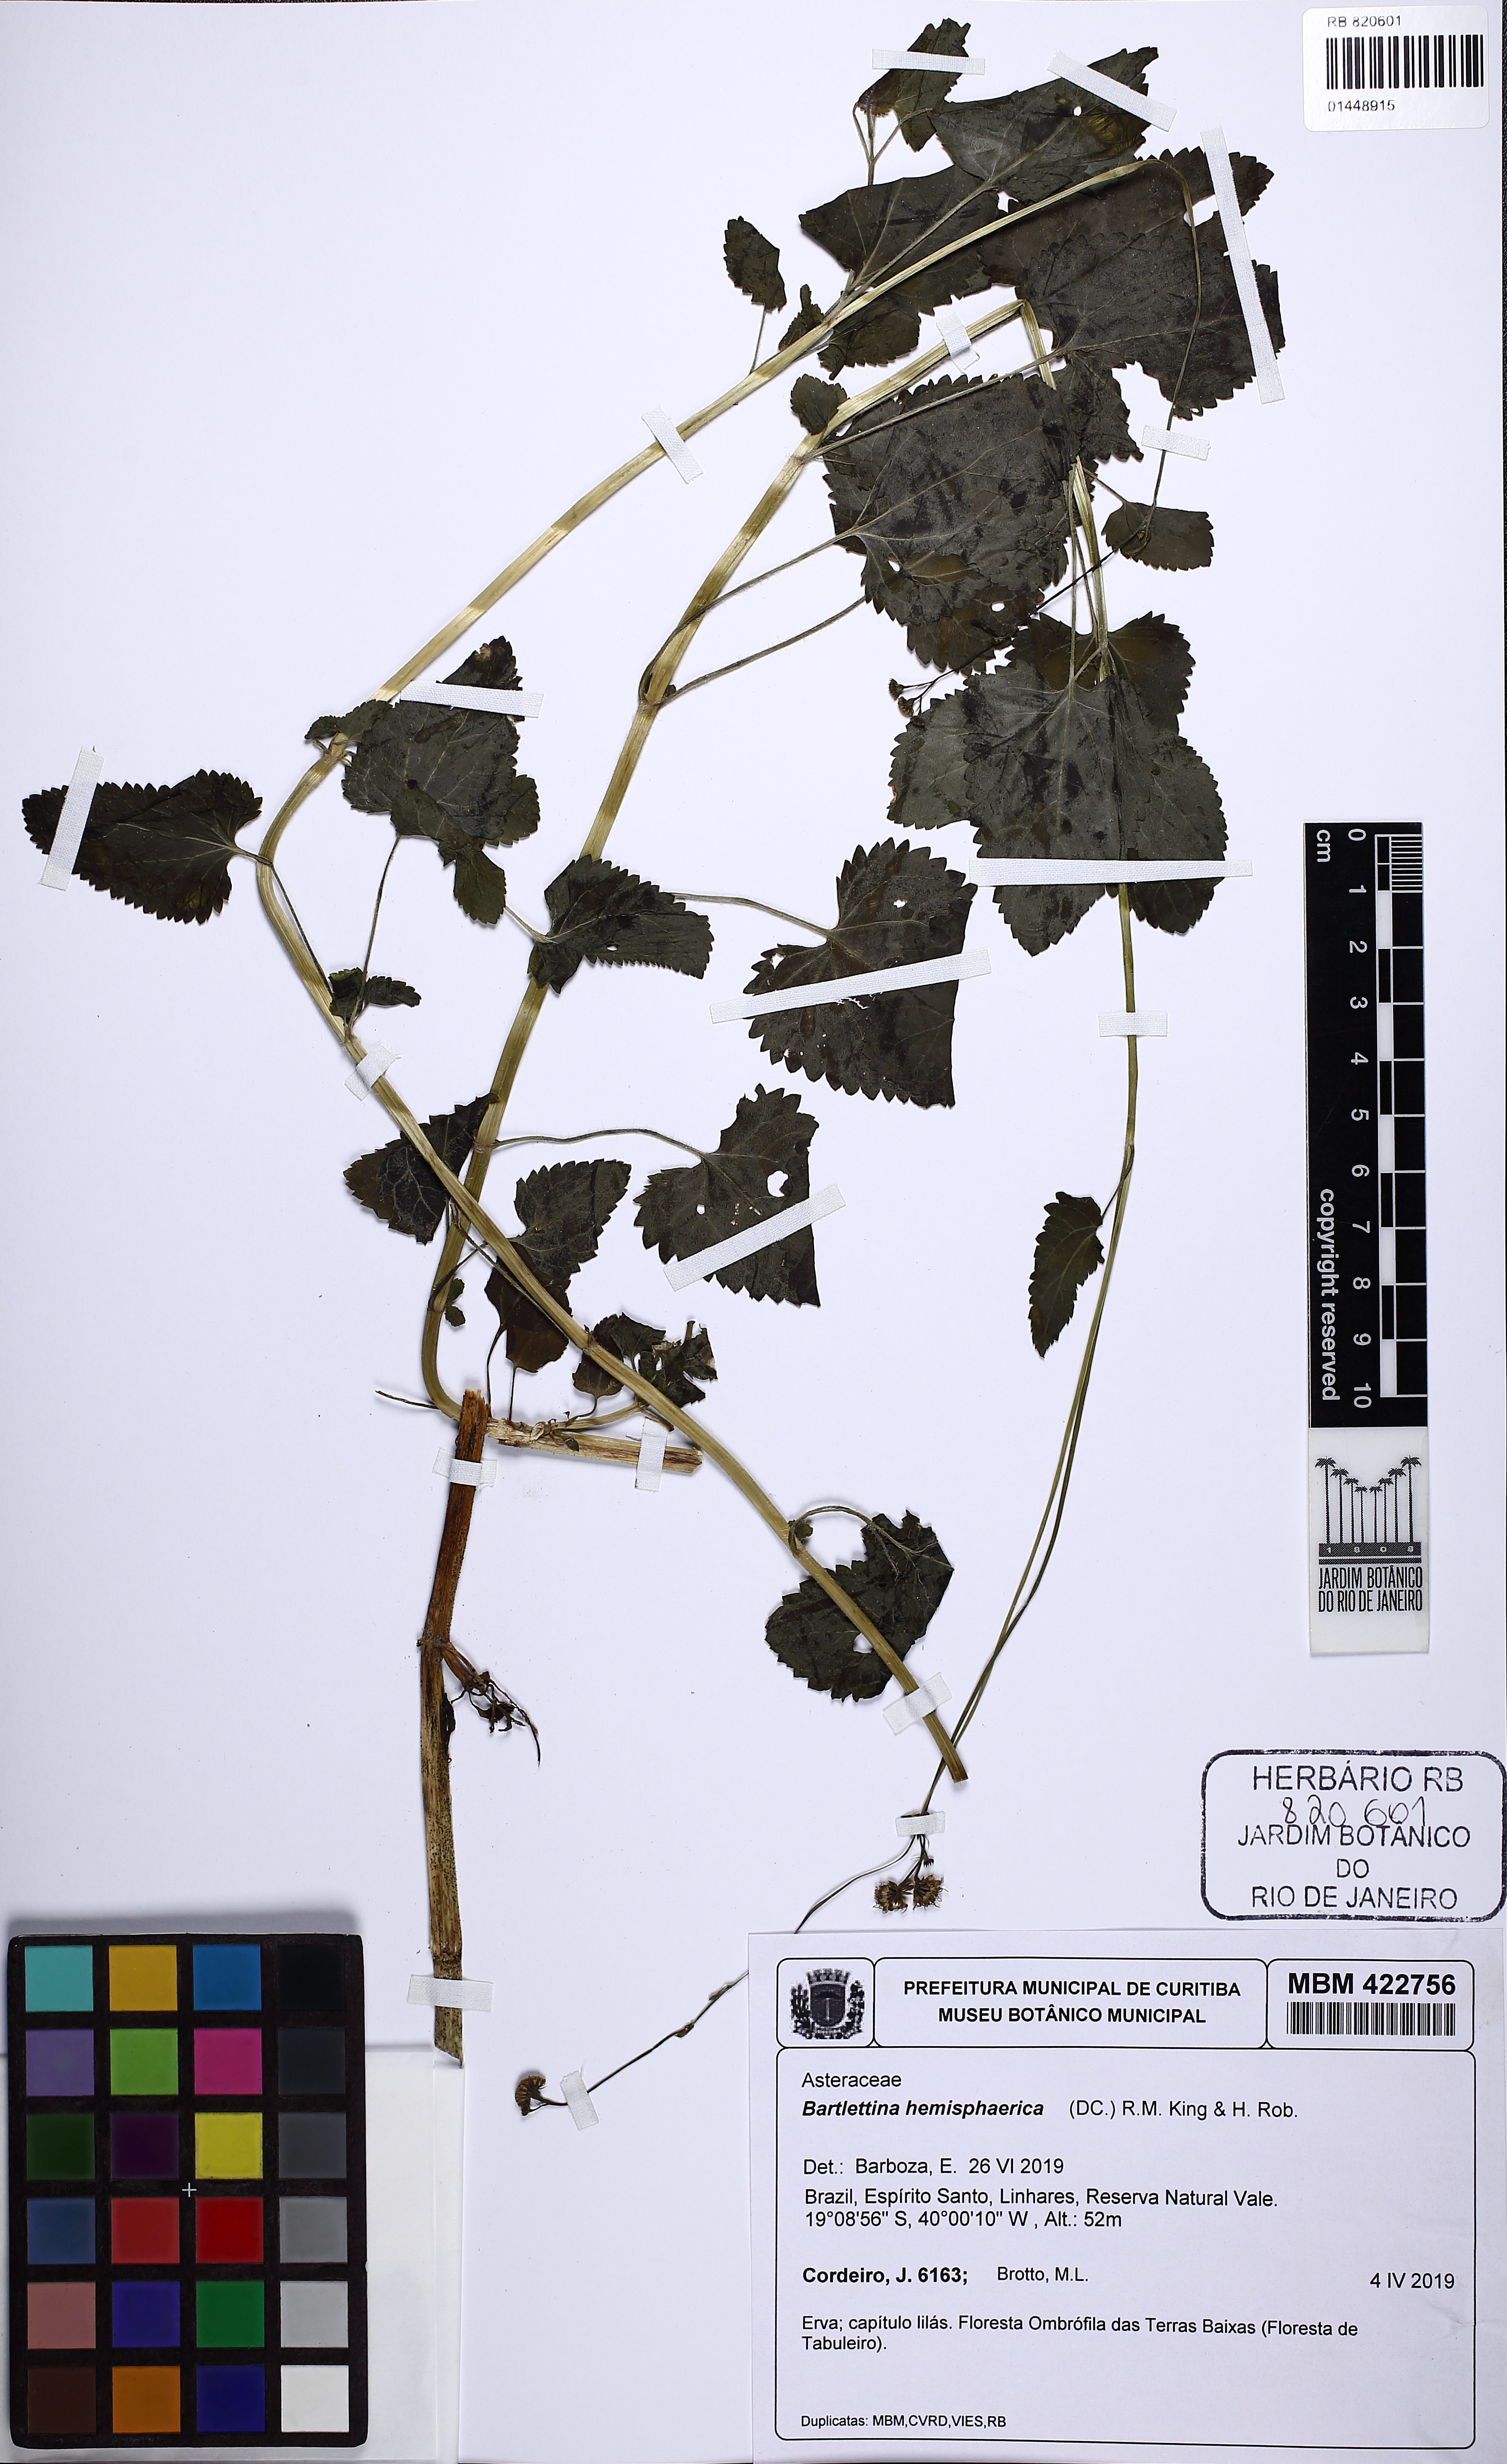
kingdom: Plantae
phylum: Tracheophyta
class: Magnoliopsida
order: Asterales
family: Asteraceae
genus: Bartlettina
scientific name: Bartlettina conspicua
